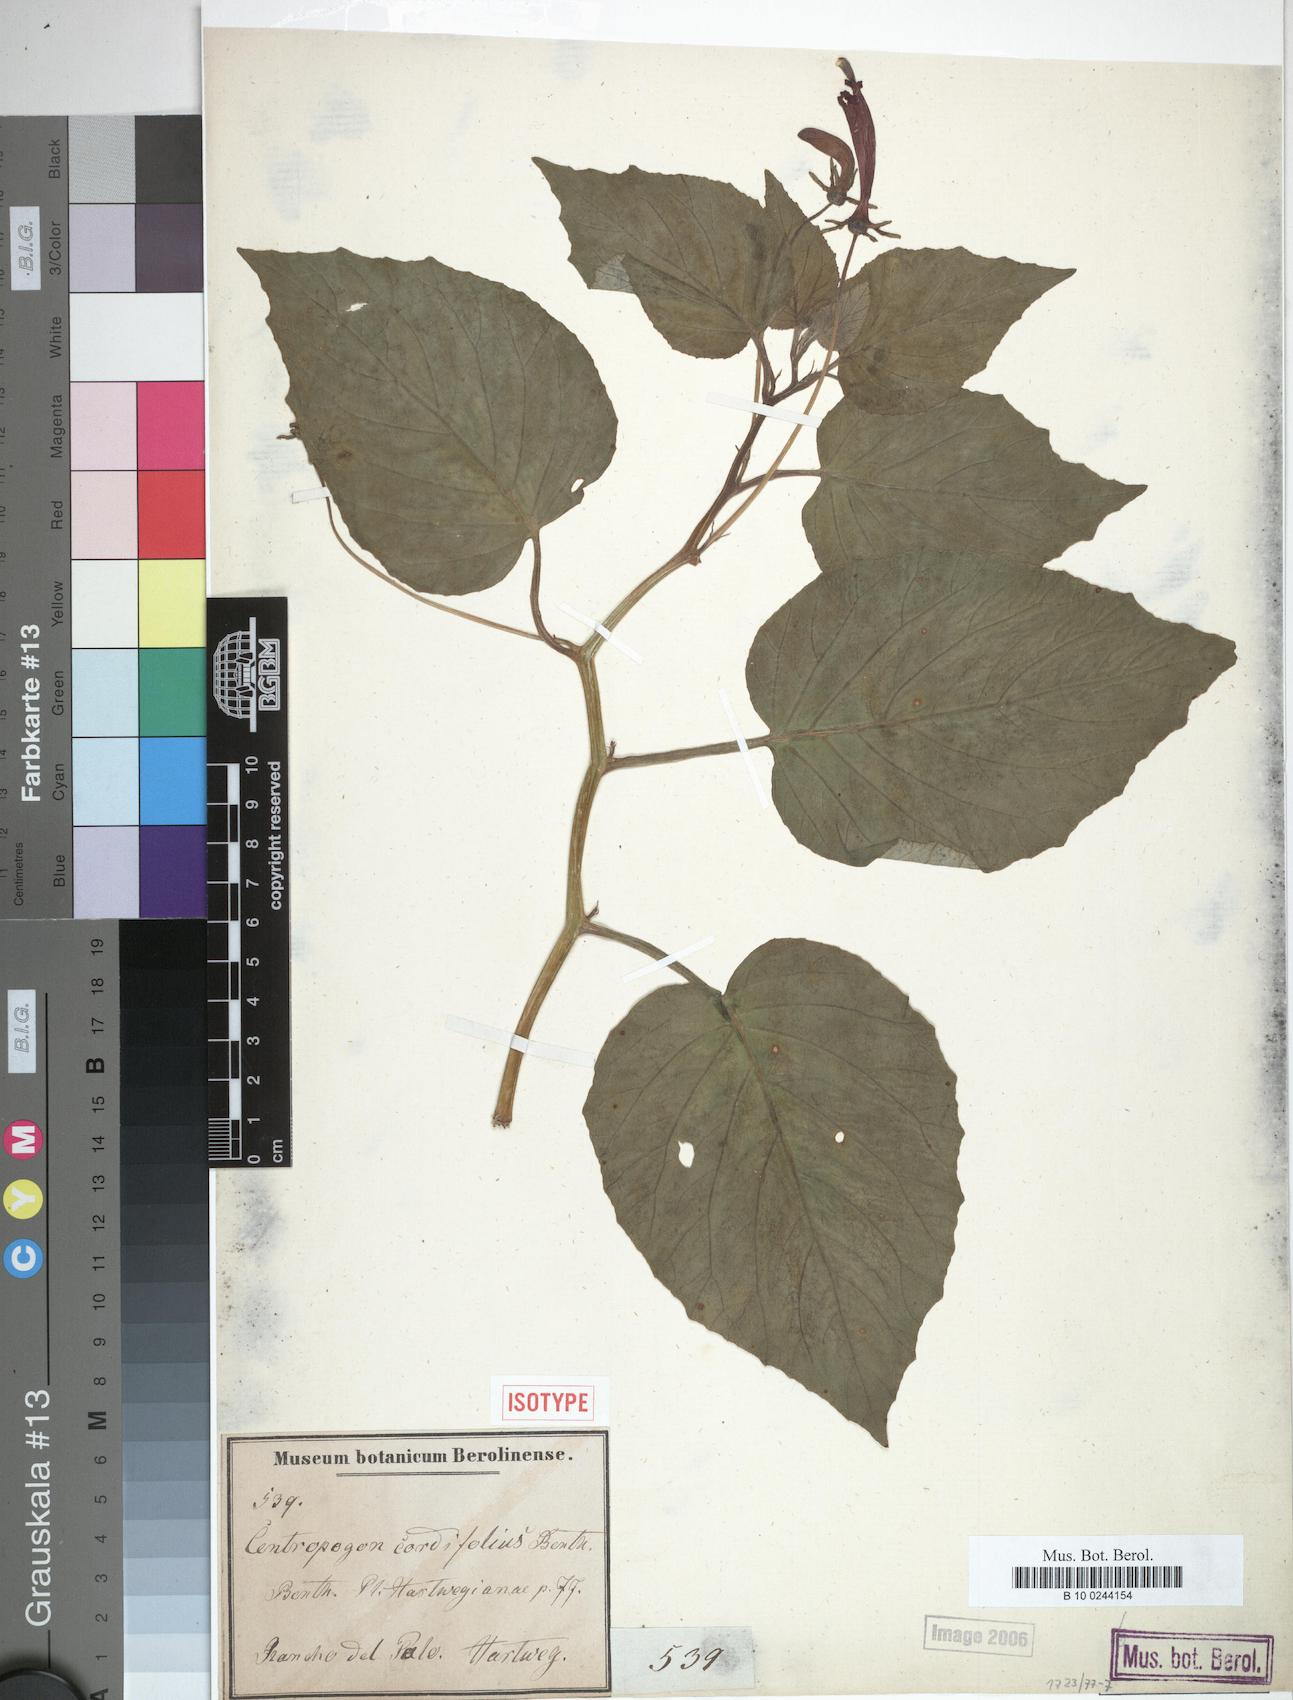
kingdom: Plantae
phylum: Tracheophyta
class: Magnoliopsida
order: Asterales
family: Campanulaceae
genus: Centropogon
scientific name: Centropogon cordifolius
